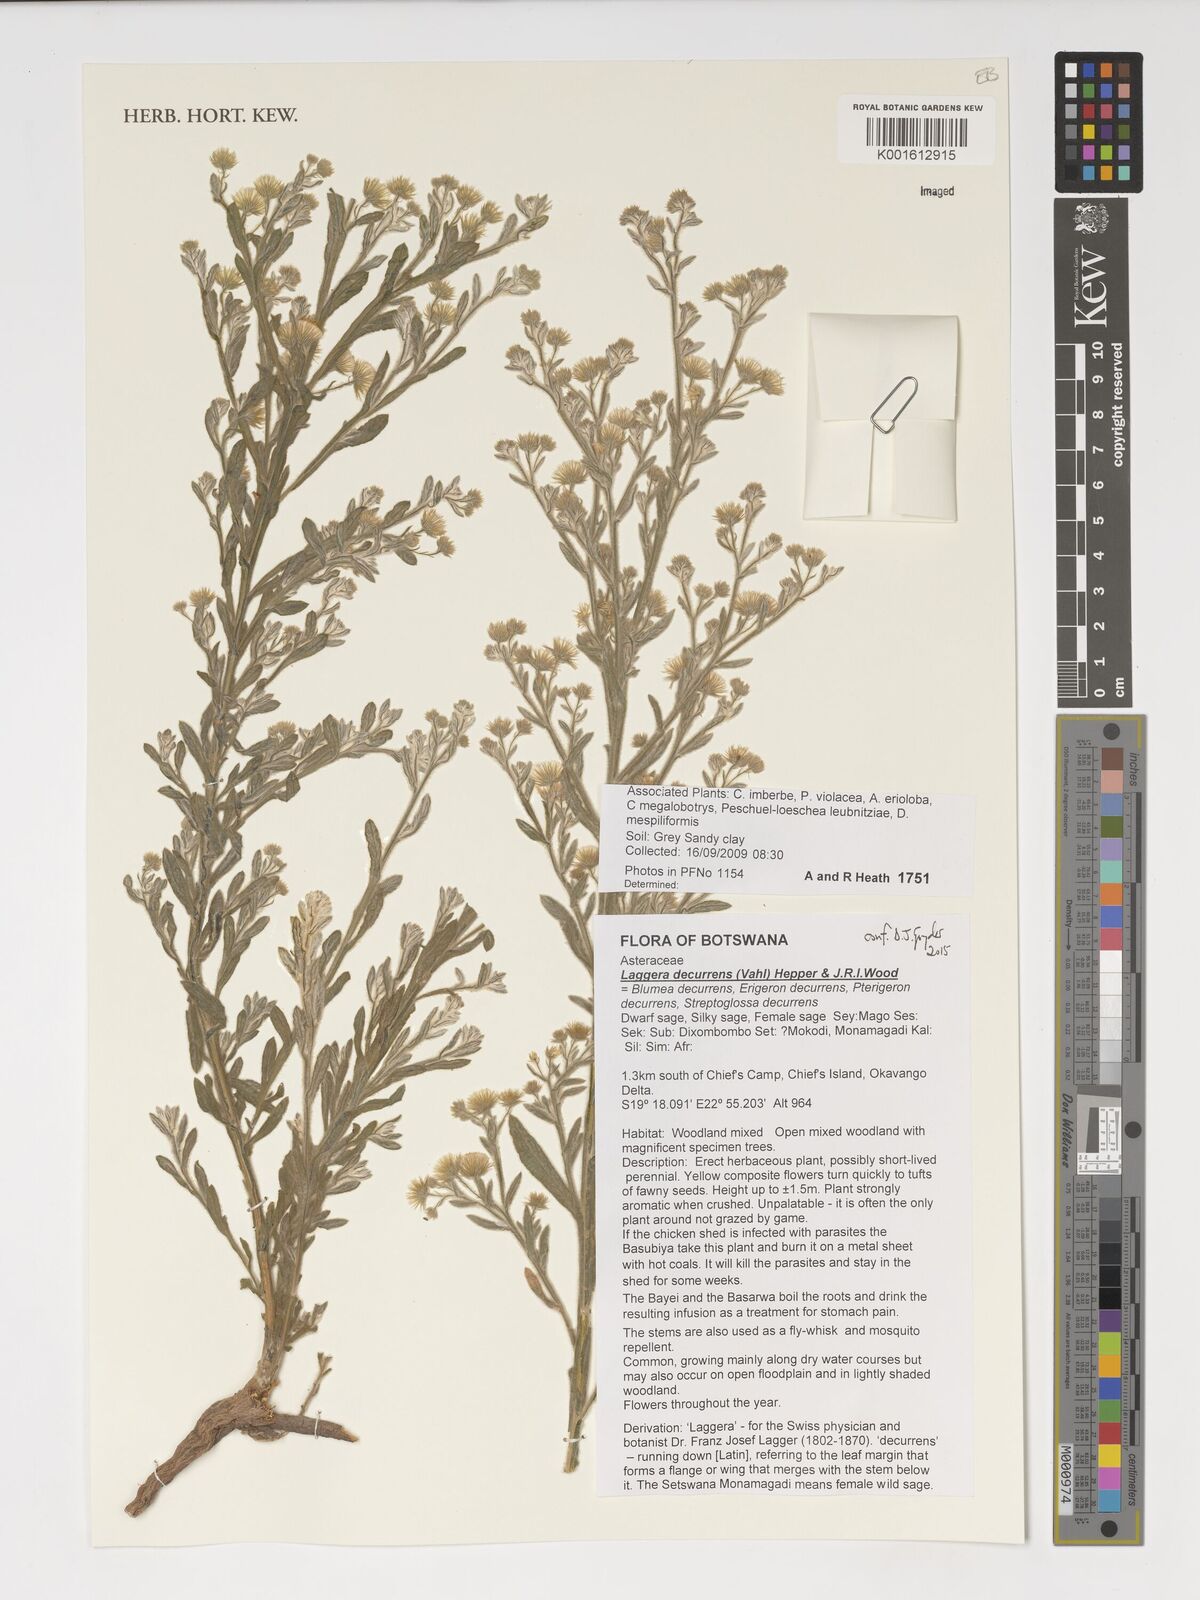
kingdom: Plantae
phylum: Tracheophyta
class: Magnoliopsida
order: Asterales
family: Asteraceae
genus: Galgera
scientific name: Galgera decurrens
